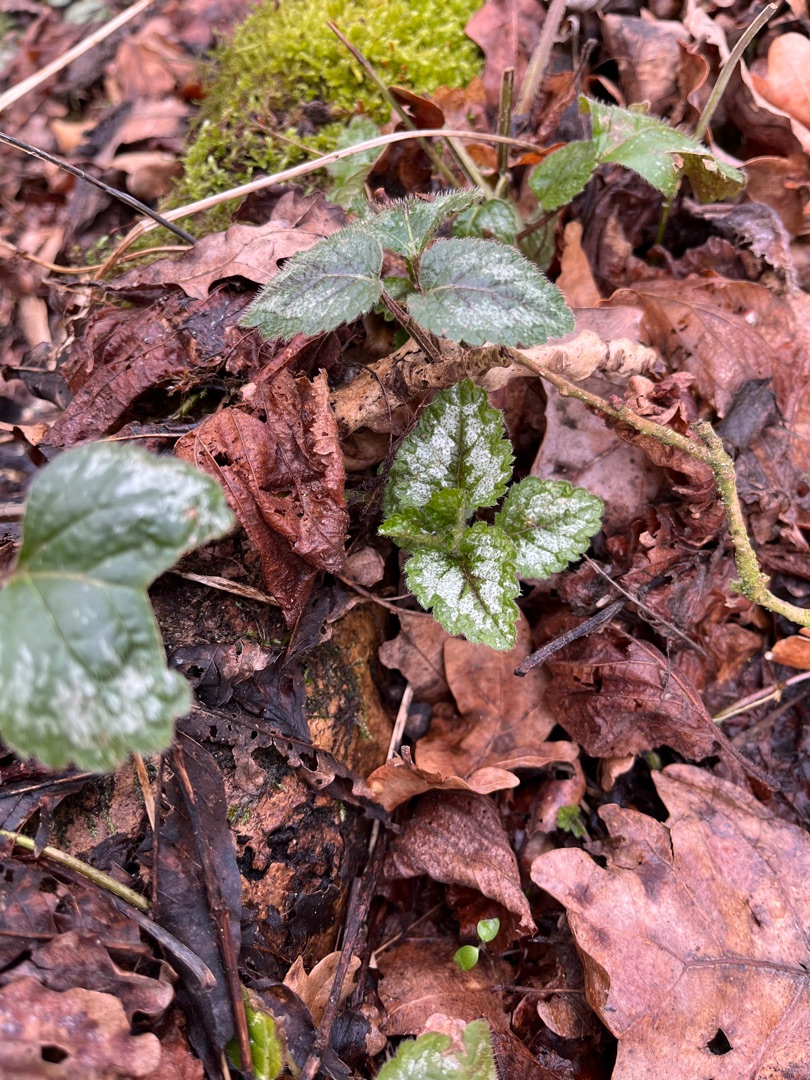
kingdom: Plantae
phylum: Tracheophyta
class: Magnoliopsida
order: Lamiales
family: Lamiaceae
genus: Lamium
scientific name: Lamium galeobdolon
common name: Have-guldnælde
